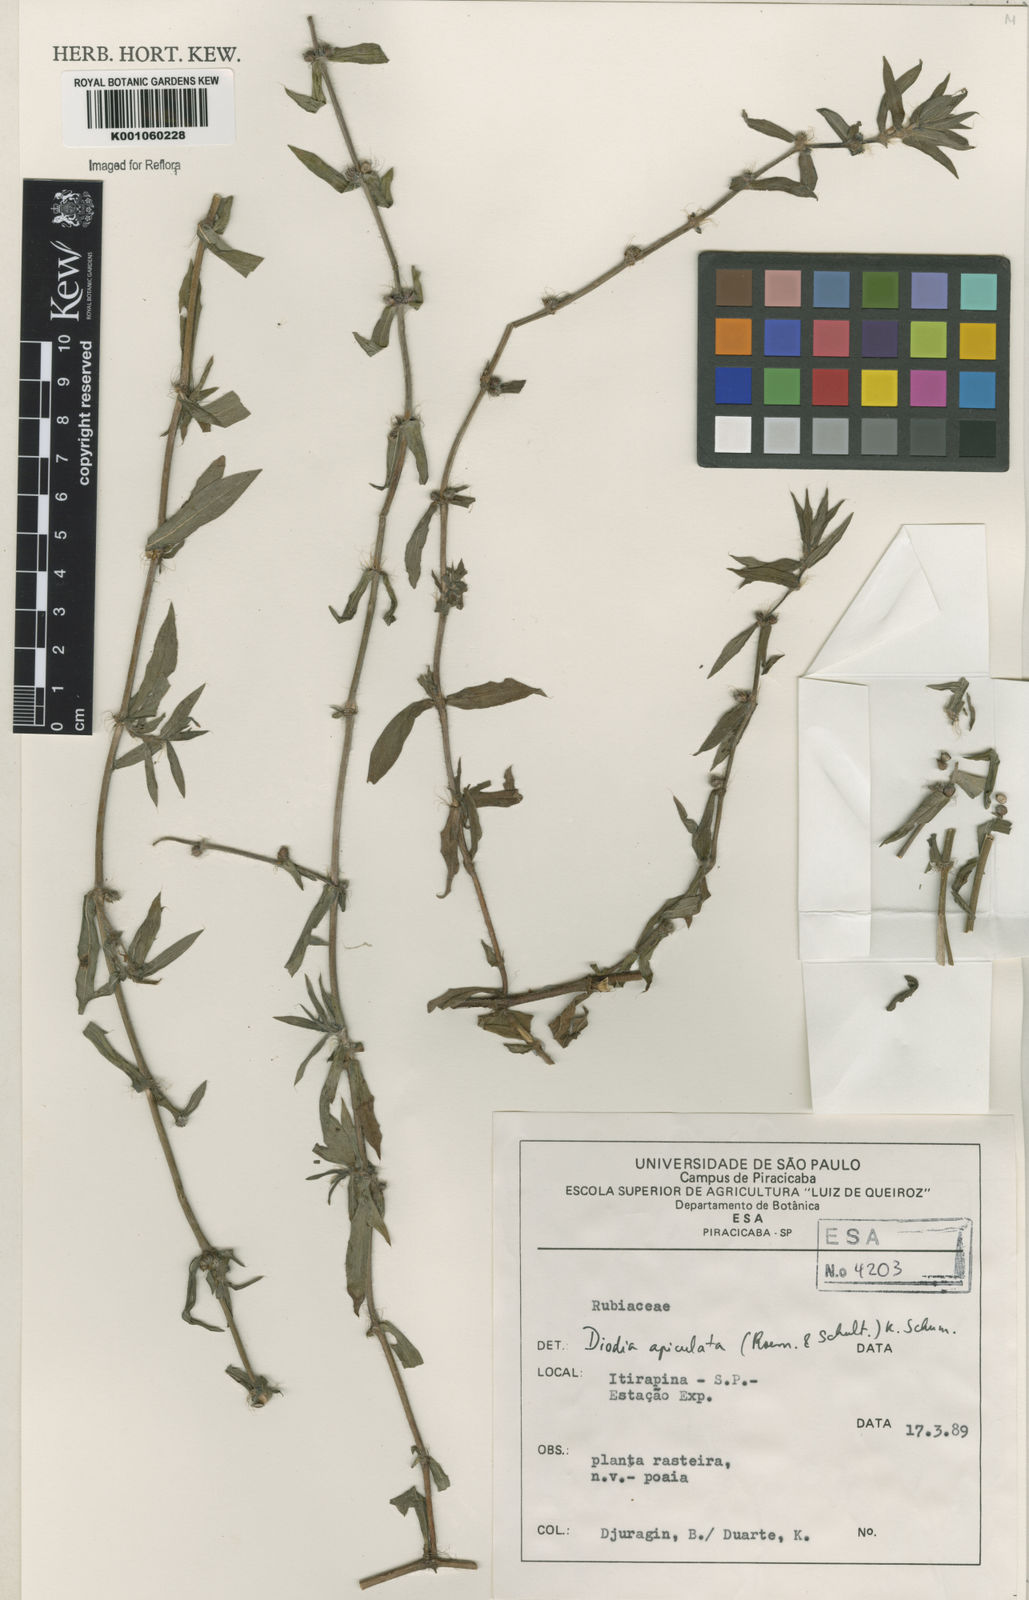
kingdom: Plantae
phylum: Tracheophyta
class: Magnoliopsida
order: Gentianales
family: Rubiaceae
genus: Hexasepalum
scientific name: Hexasepalum apiculatum
